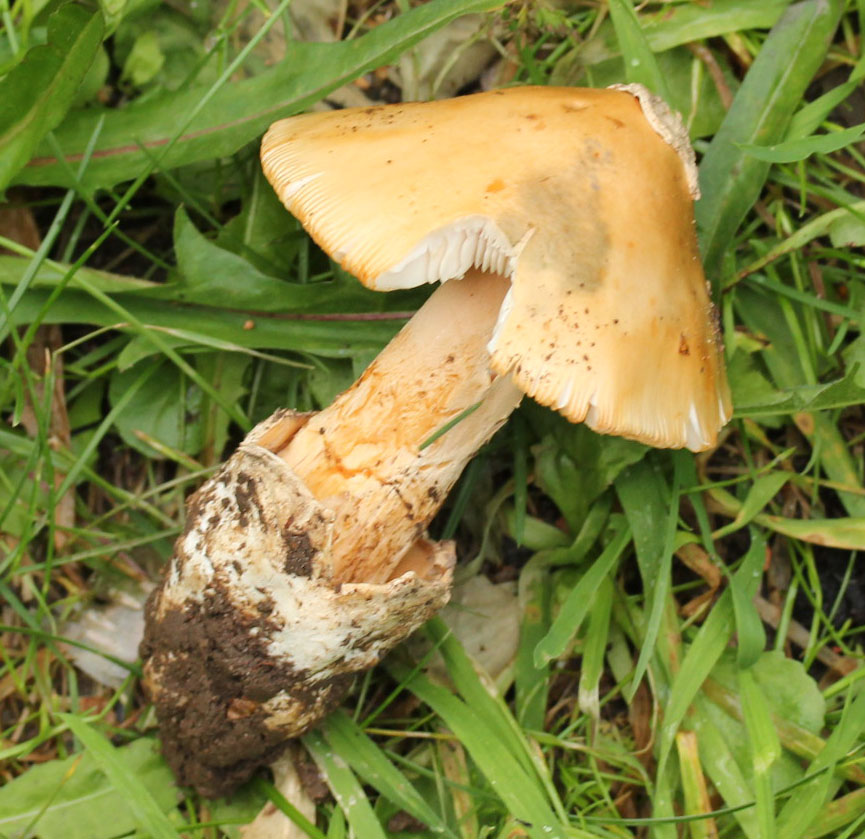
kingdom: Fungi
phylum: Basidiomycota
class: Agaricomycetes
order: Agaricales
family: Amanitaceae
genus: Amanita
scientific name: Amanita
